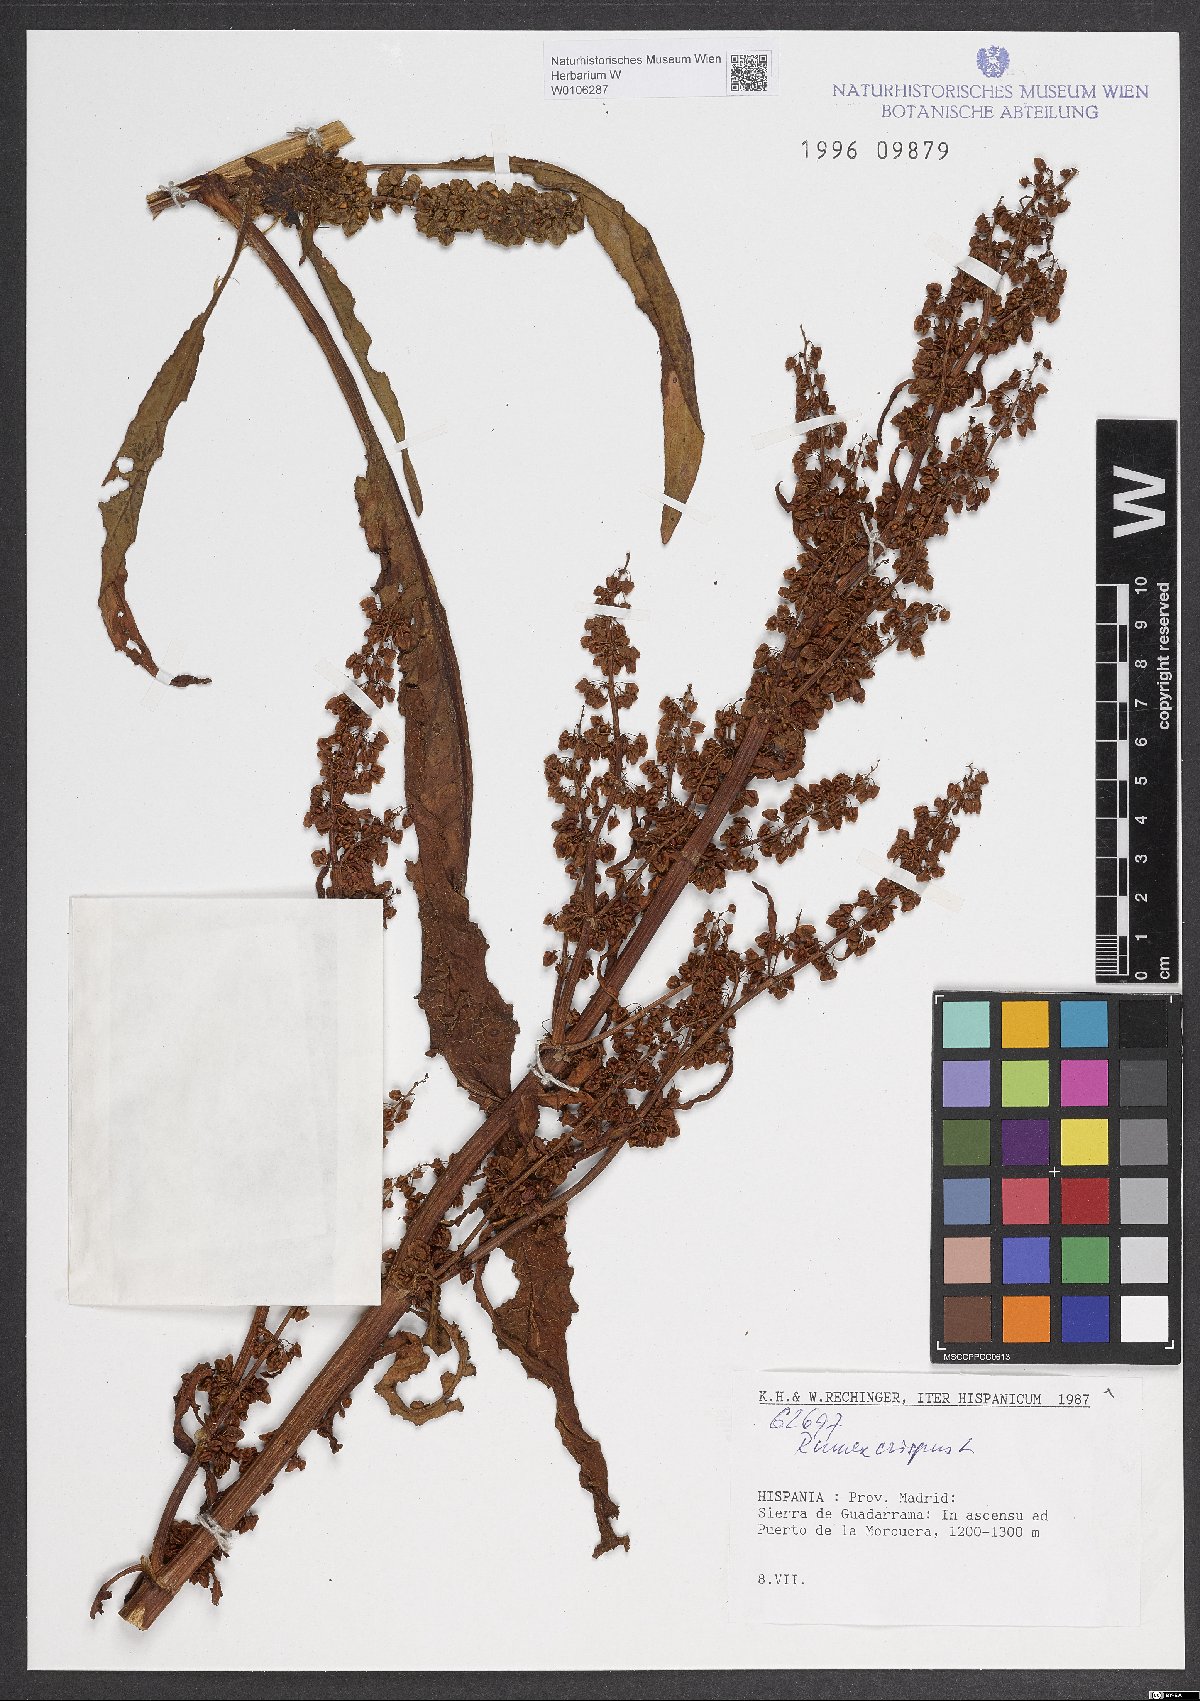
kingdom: Plantae
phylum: Tracheophyta
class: Magnoliopsida
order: Caryophyllales
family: Polygonaceae
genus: Rumex
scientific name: Rumex crispus
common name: Curled dock
